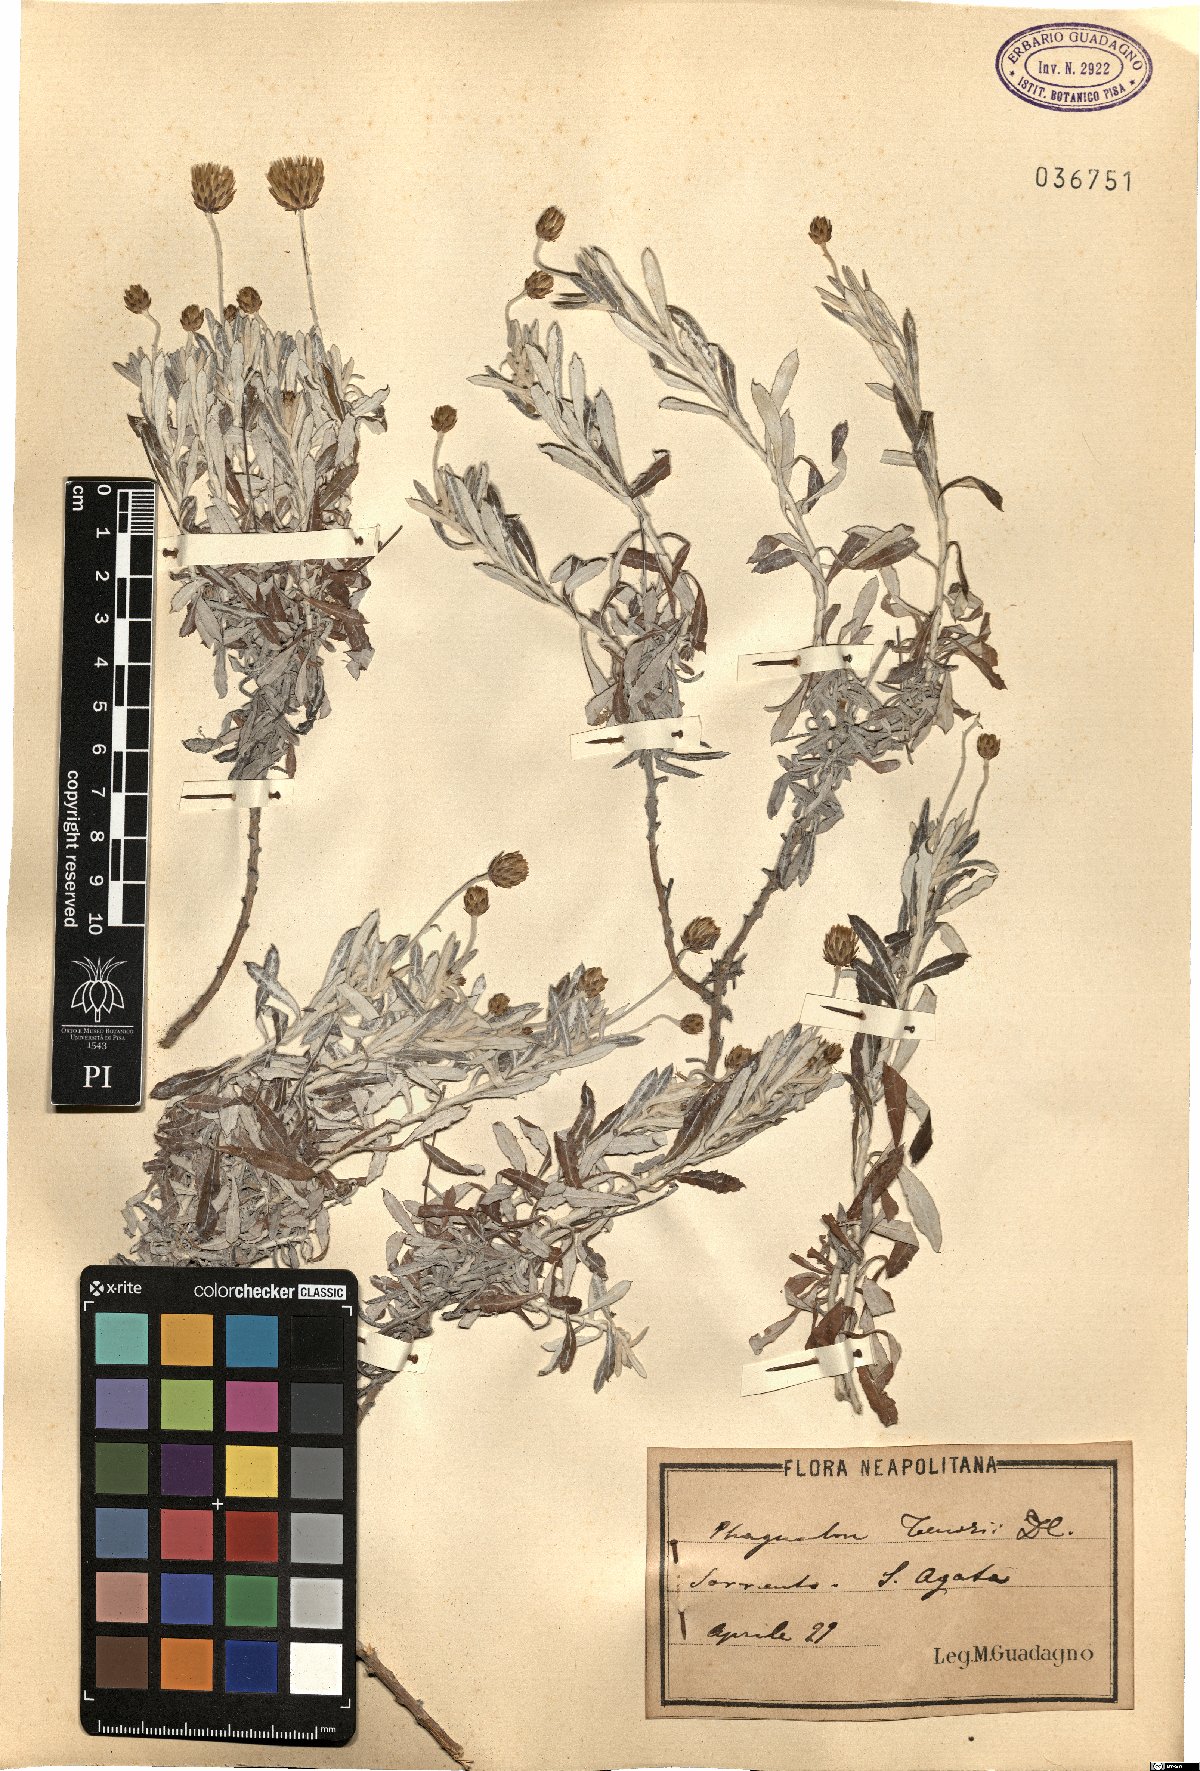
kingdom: Plantae
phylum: Tracheophyta
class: Magnoliopsida
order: Asterales
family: Asteraceae
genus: Phagnalon
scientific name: Phagnalon graecum
